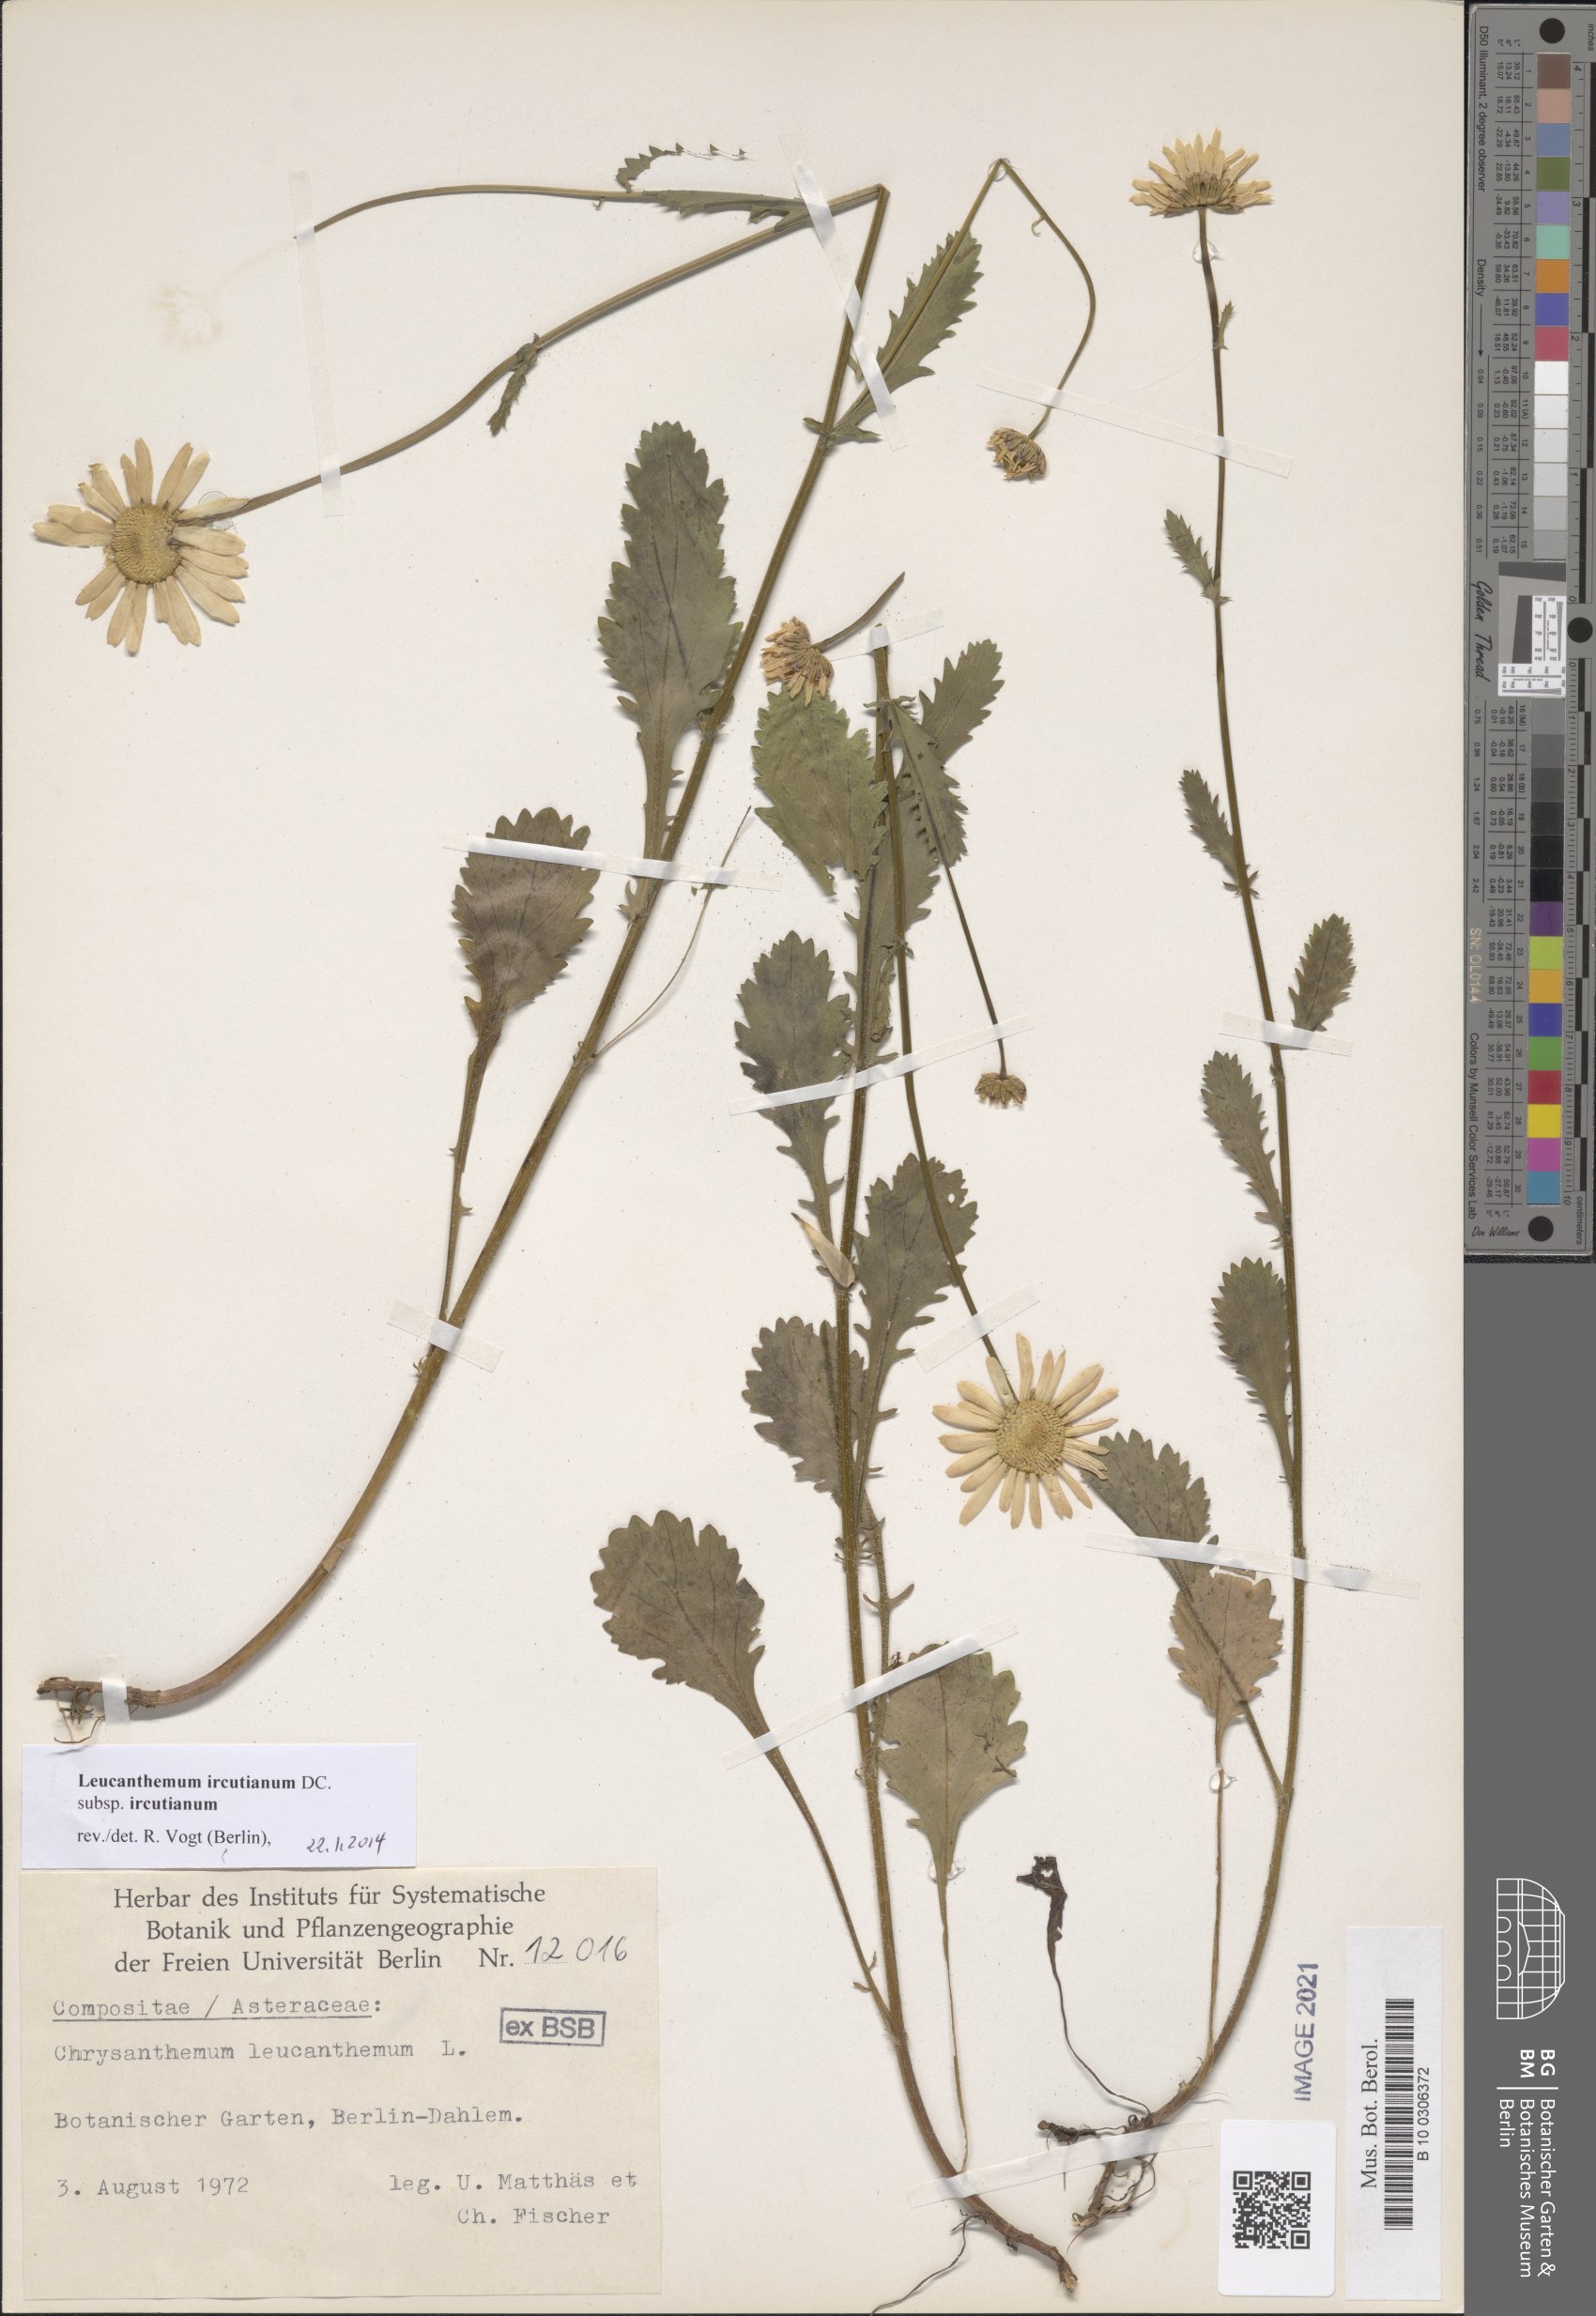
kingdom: Plantae
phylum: Tracheophyta
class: Magnoliopsida
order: Asterales
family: Asteraceae
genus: Leucanthemum
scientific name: Leucanthemum ircutianum
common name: Daisy
